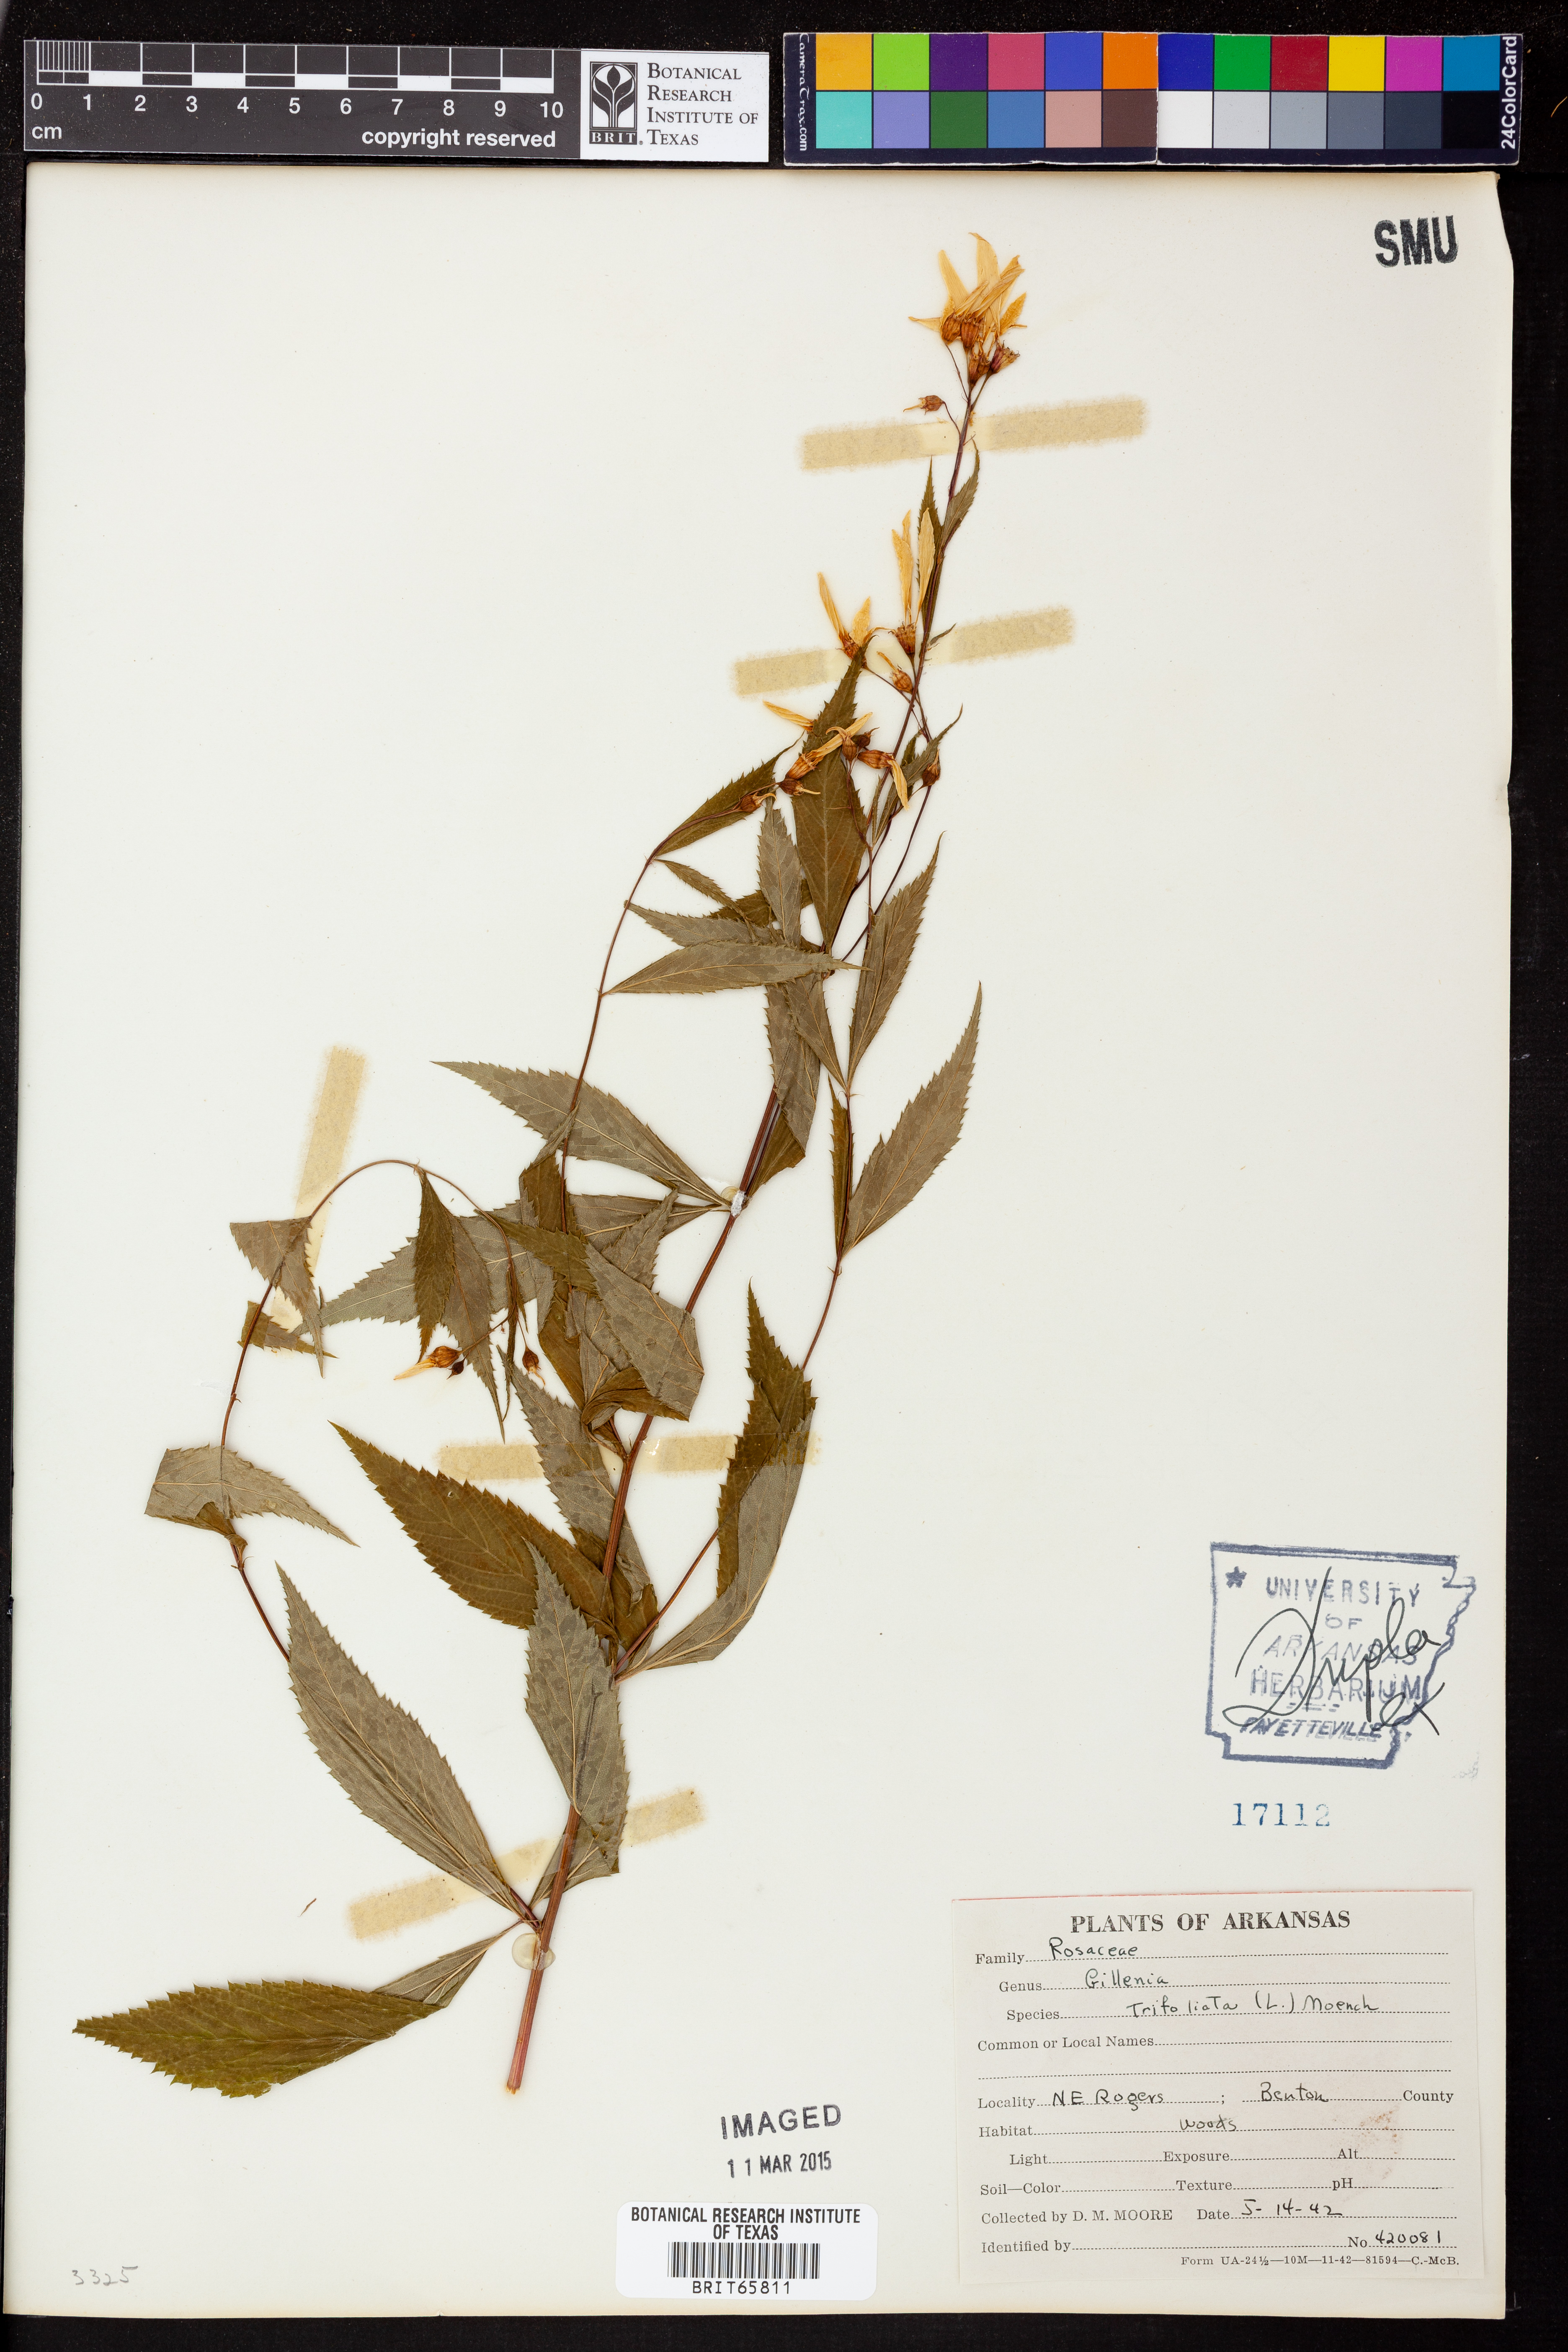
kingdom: Plantae
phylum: Tracheophyta
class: Magnoliopsida
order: Rosales
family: Rosaceae
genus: Gillenia
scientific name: Gillenia trifoliata
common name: Bowman's-root
